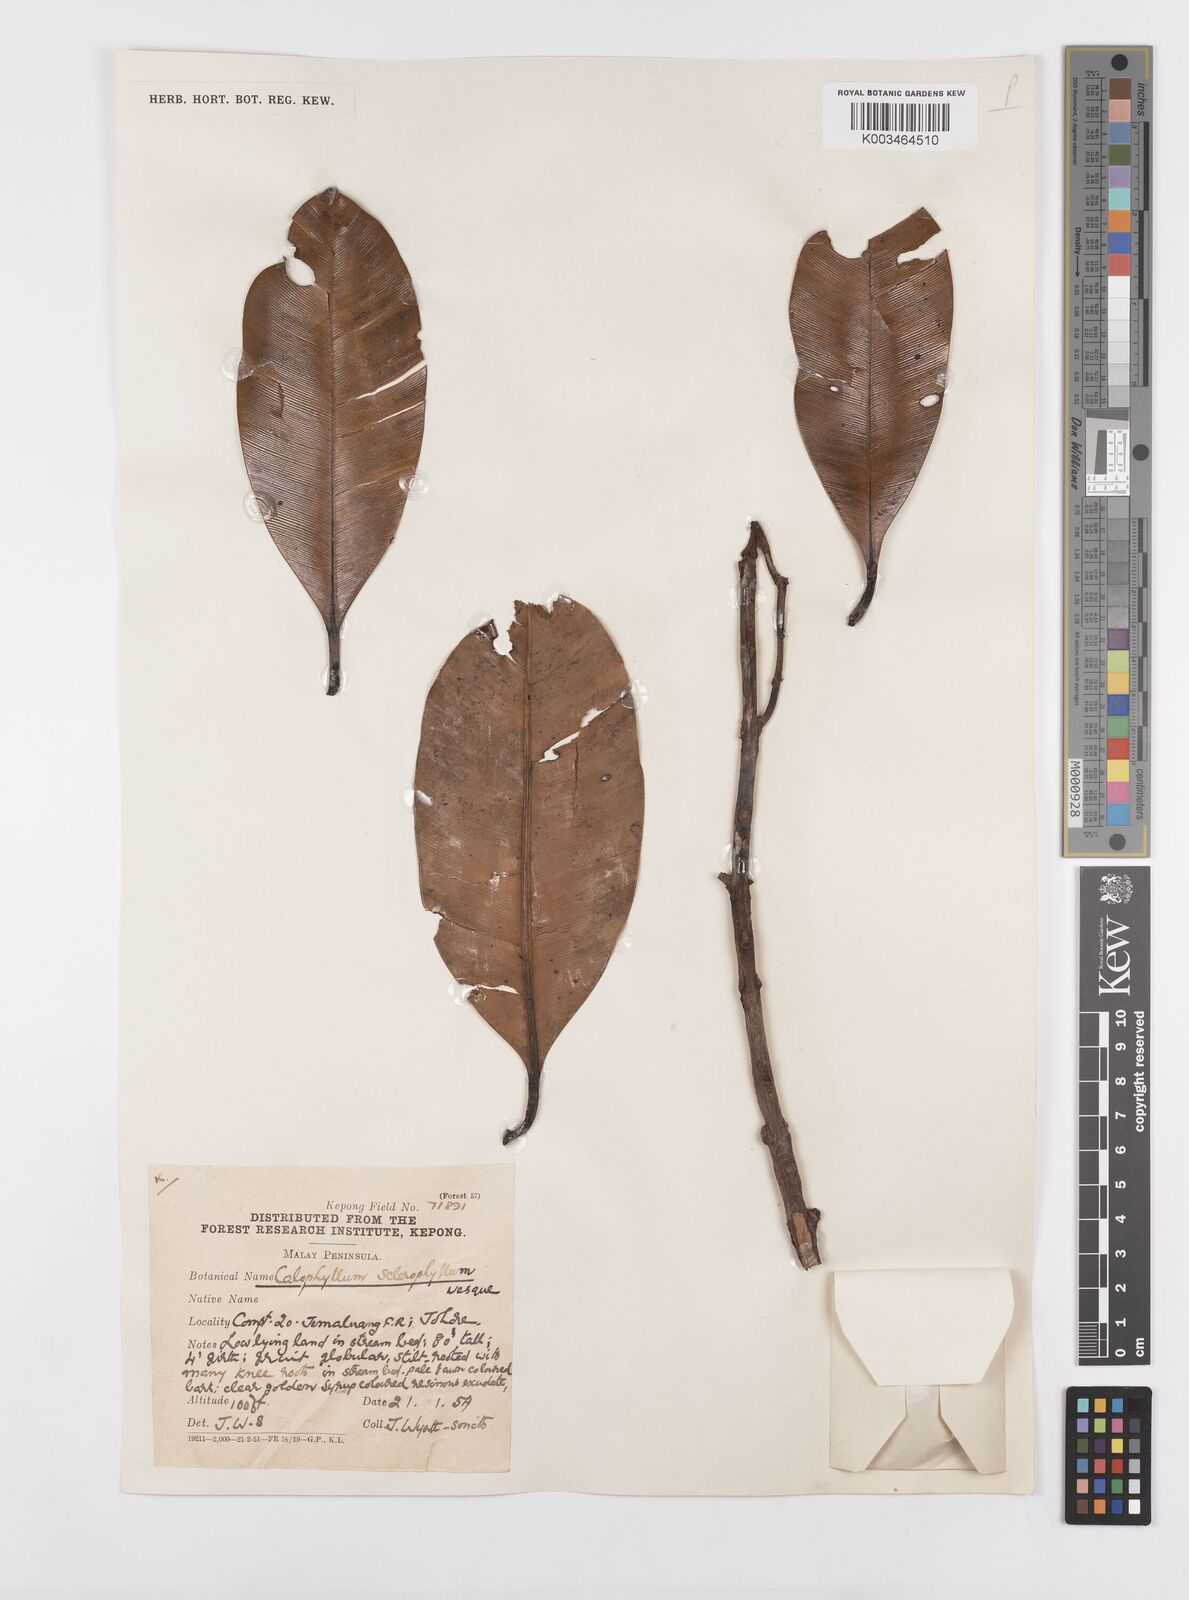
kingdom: Plantae
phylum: Tracheophyta
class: Magnoliopsida
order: Malpighiales
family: Calophyllaceae
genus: Calophyllum
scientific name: Calophyllum sclerophyllum
